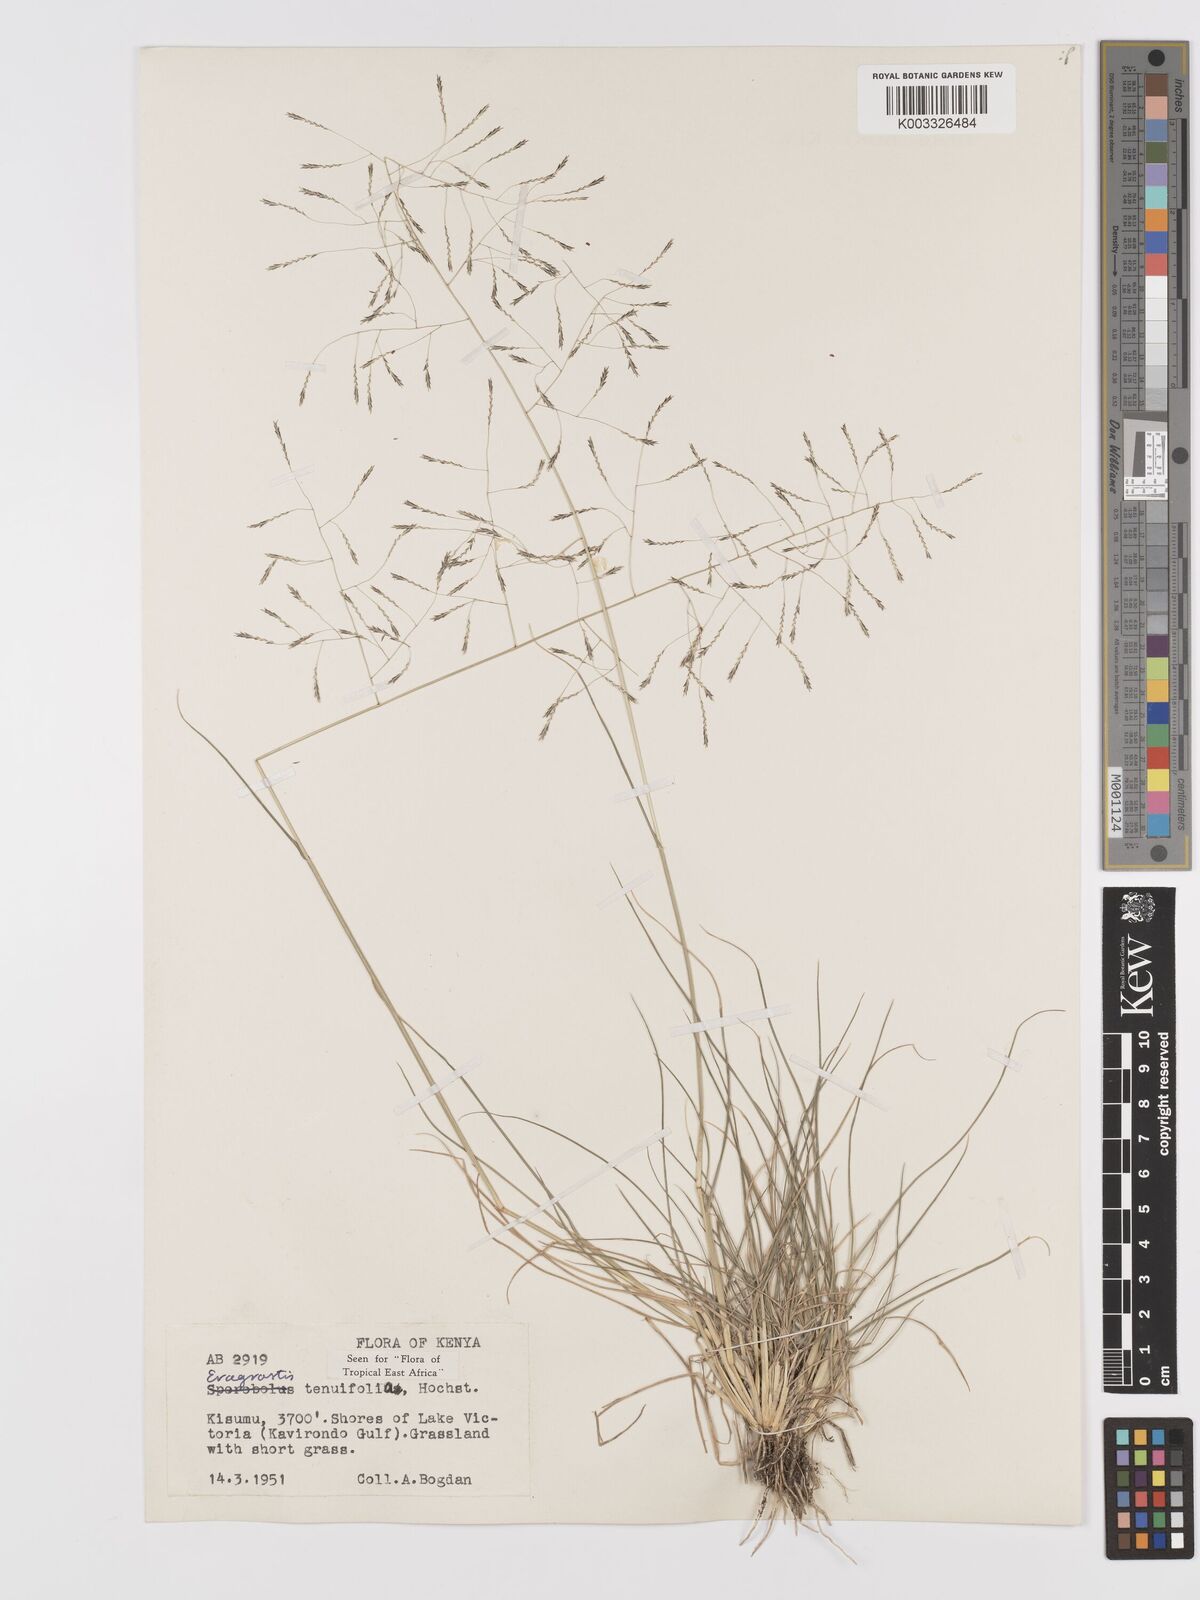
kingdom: Plantae
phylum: Tracheophyta
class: Liliopsida
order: Poales
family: Poaceae
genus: Eragrostis
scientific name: Eragrostis tenuifolia
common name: Elastic grass
